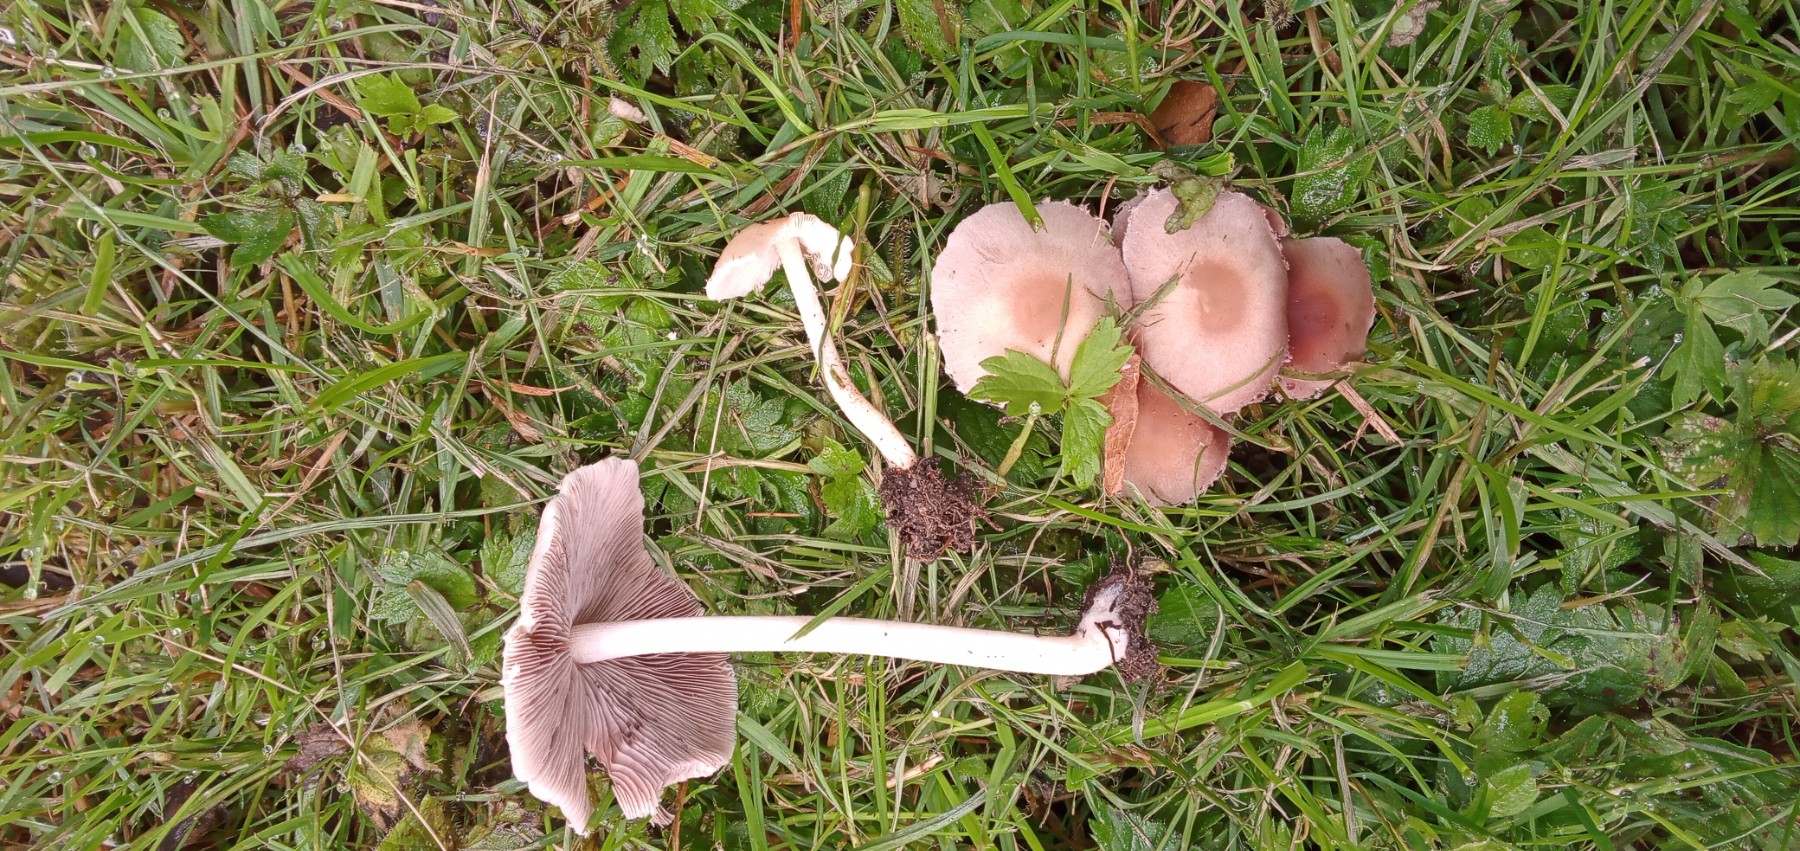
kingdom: Fungi
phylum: Basidiomycota
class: Agaricomycetes
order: Agaricales
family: Psathyrellaceae
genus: Candolleomyces
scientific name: Candolleomyces candolleanus
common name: Candolles mørkhat
